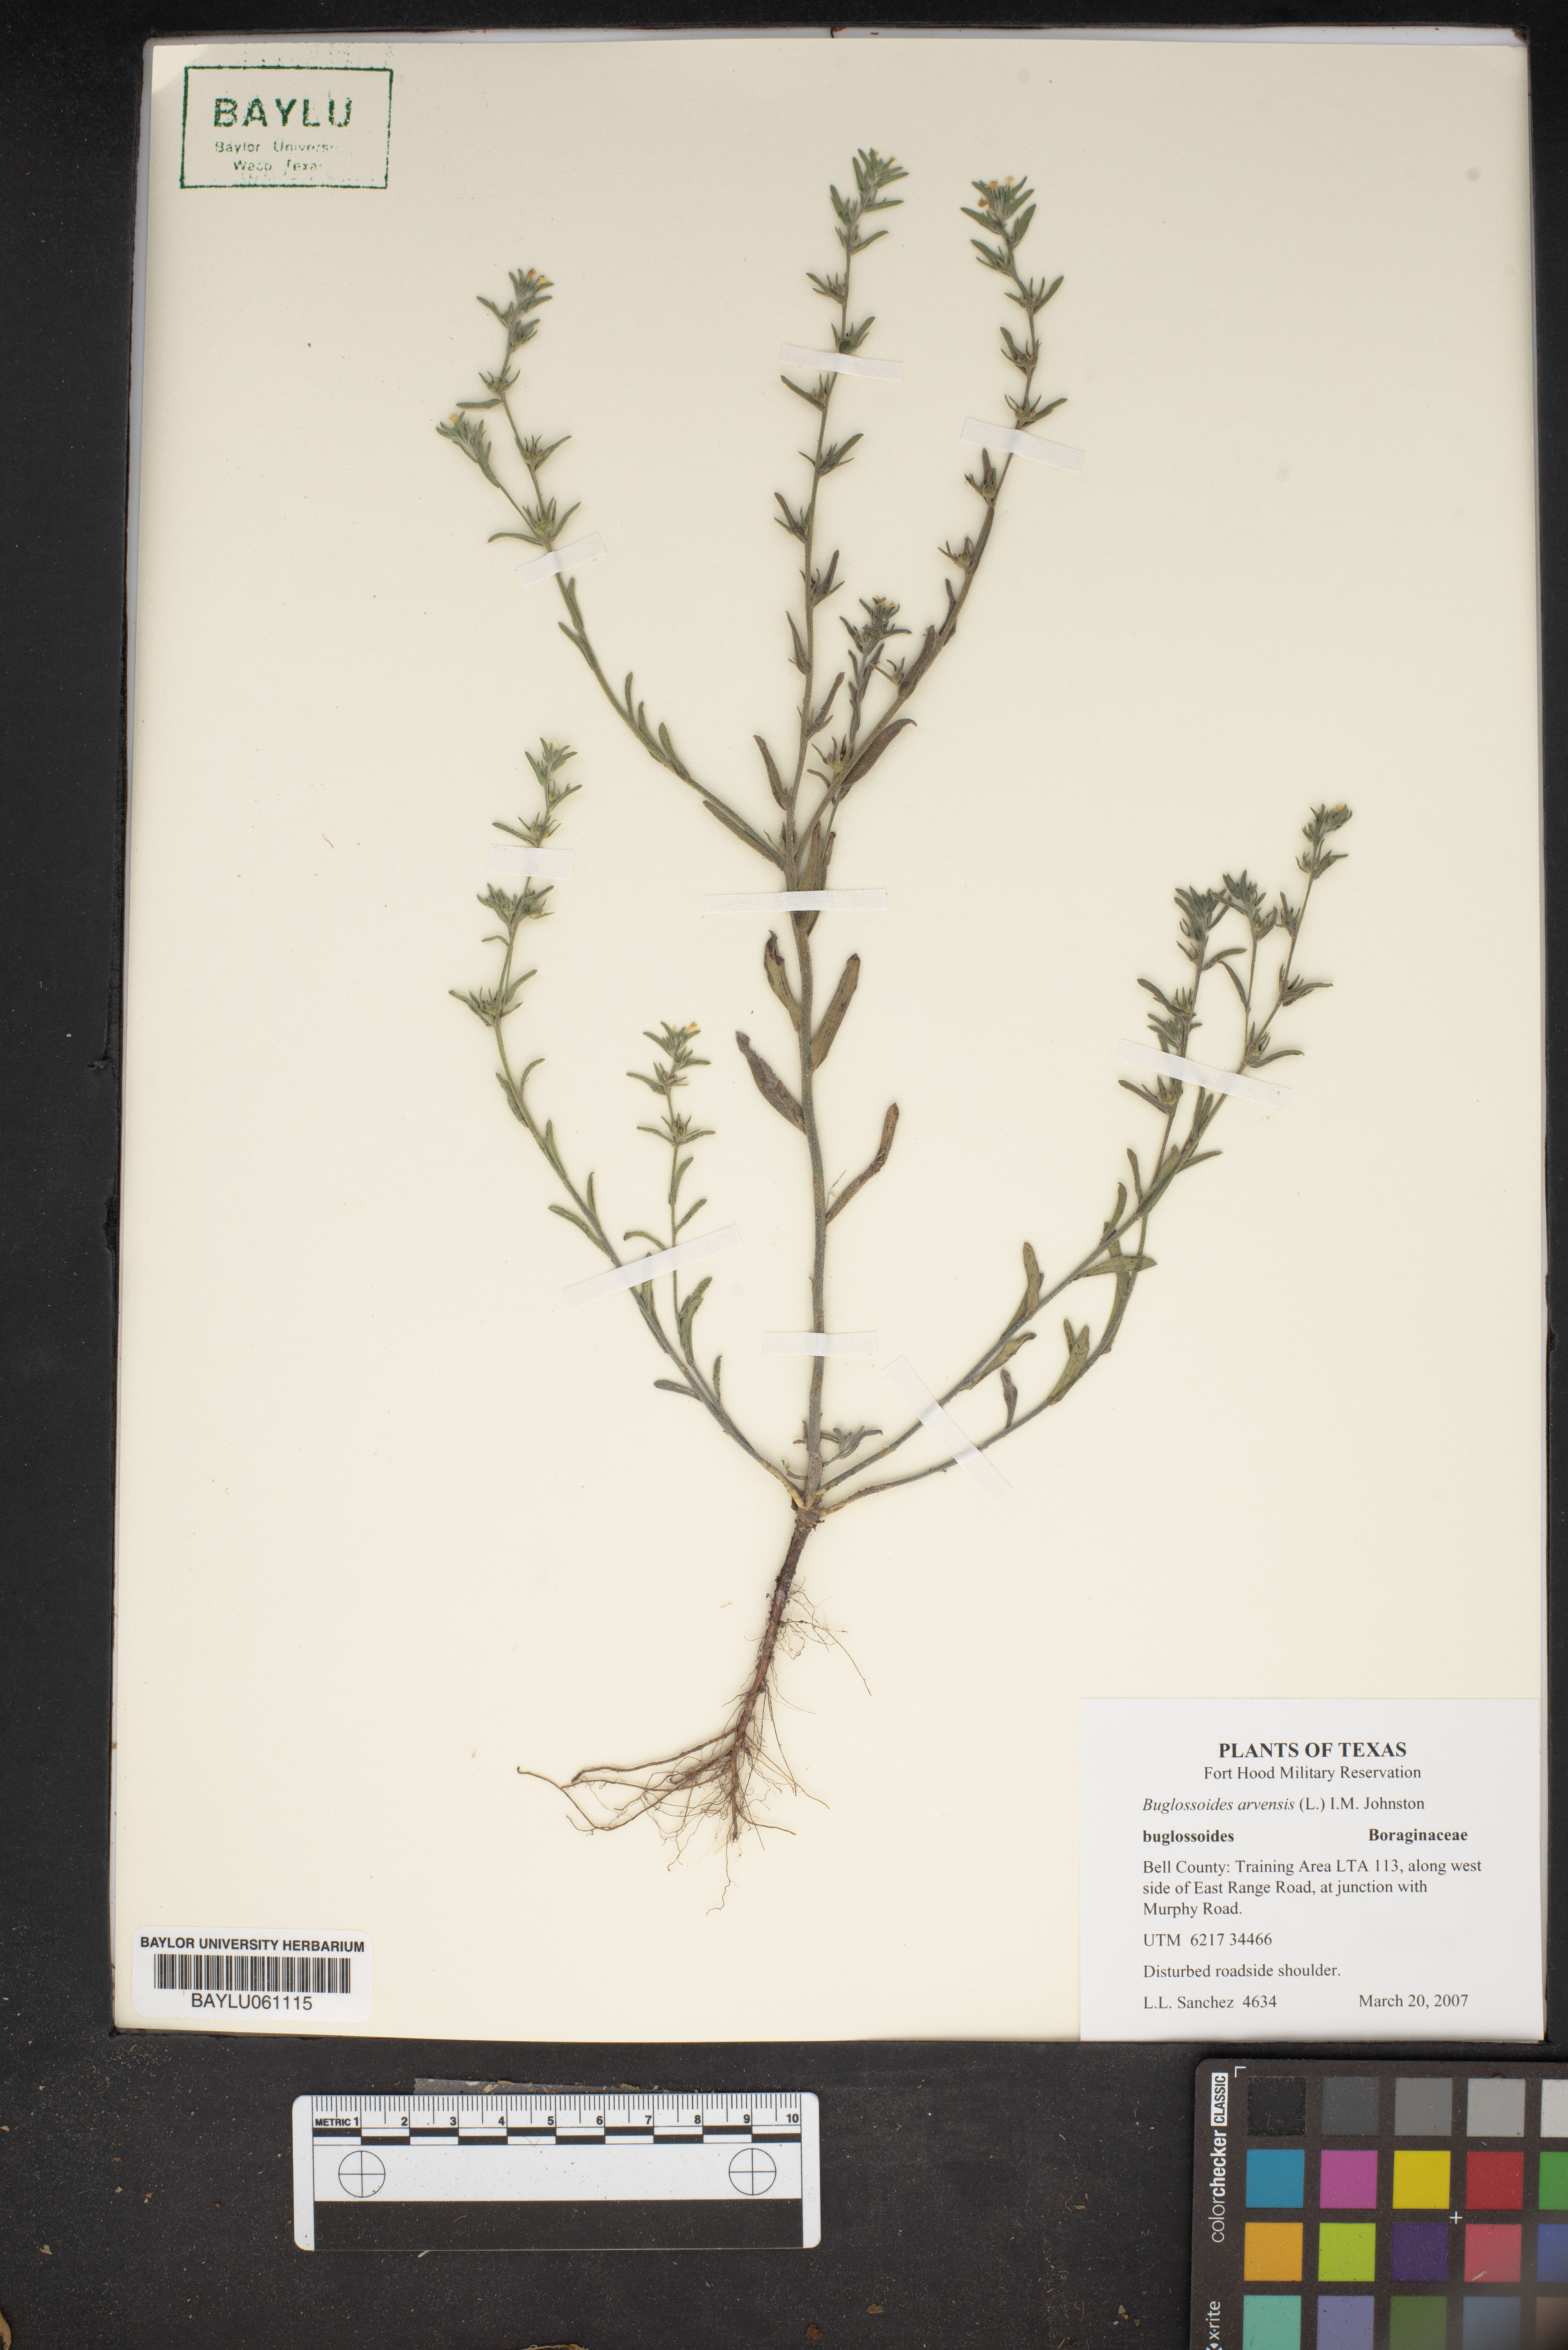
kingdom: Plantae
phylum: Tracheophyta
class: Magnoliopsida
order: Boraginales
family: Boraginaceae
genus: Buglossoides
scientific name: Buglossoides arvensis
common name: Corn gromwell
